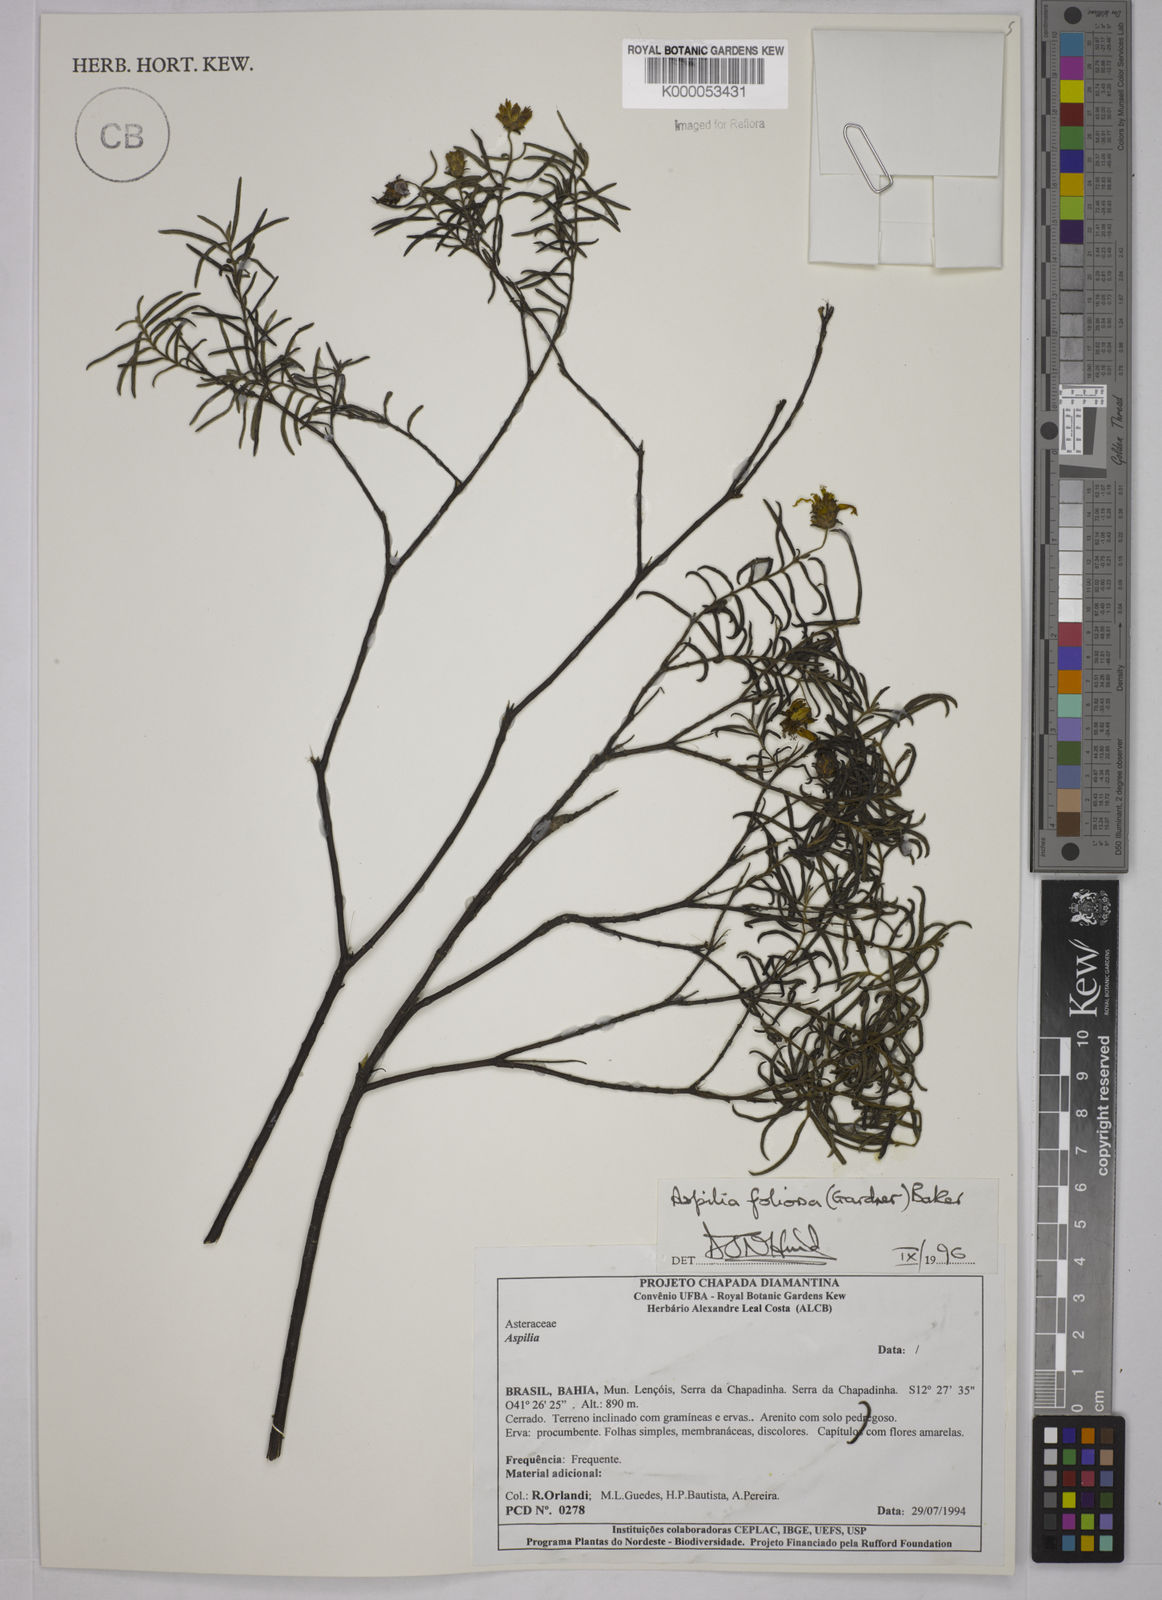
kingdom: Plantae
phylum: Tracheophyta
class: Magnoliopsida
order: Asterales
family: Asteraceae
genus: Aspilia
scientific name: Aspilia
